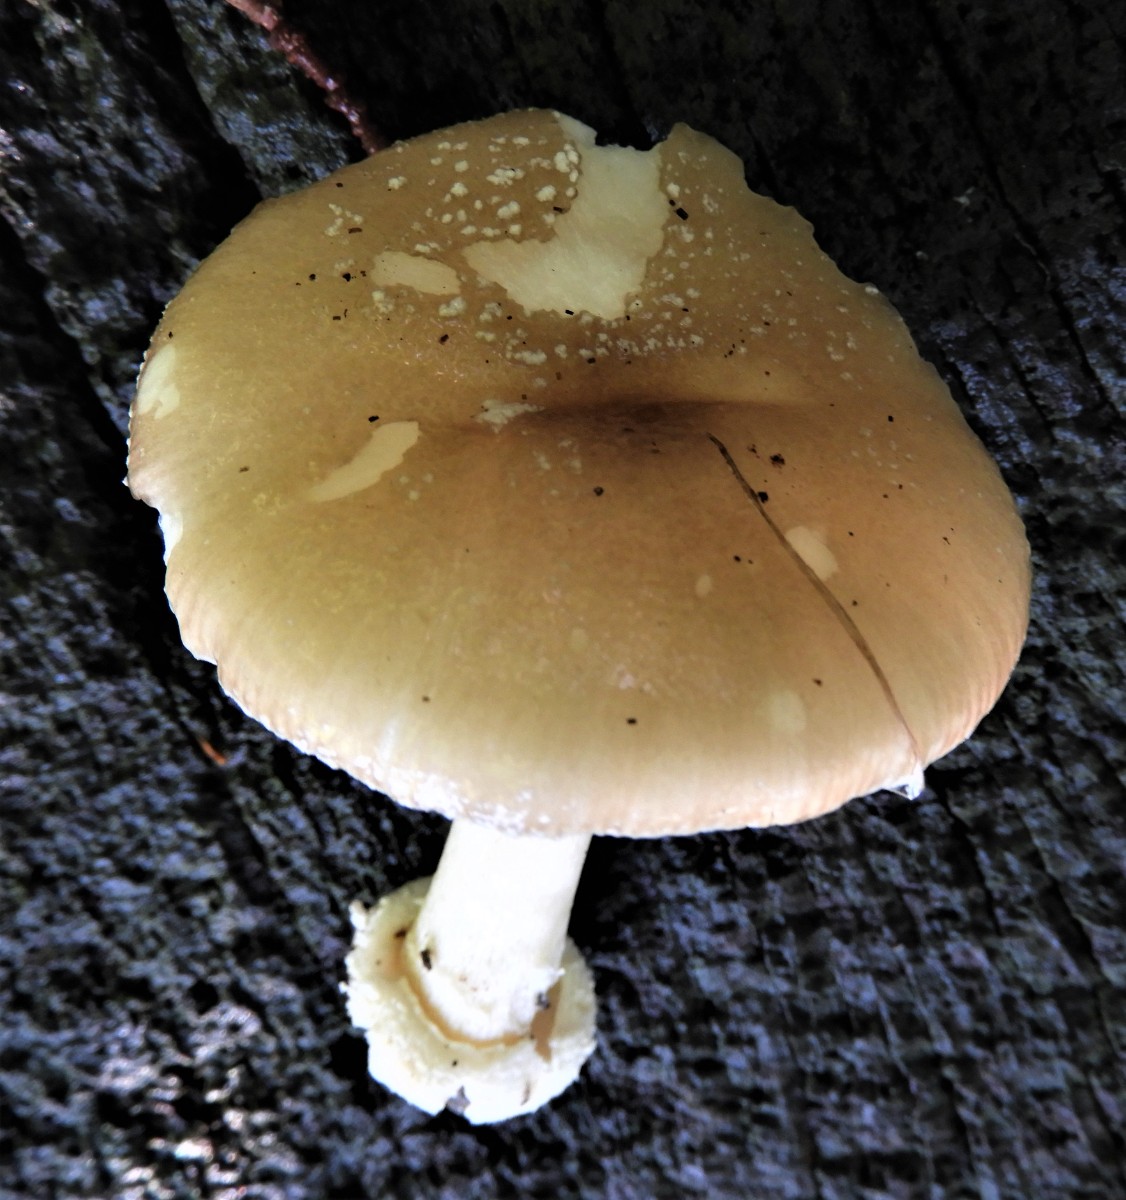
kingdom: Fungi
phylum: Basidiomycota
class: Agaricomycetes
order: Agaricales
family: Amanitaceae
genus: Amanita
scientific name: Amanita phalloides
